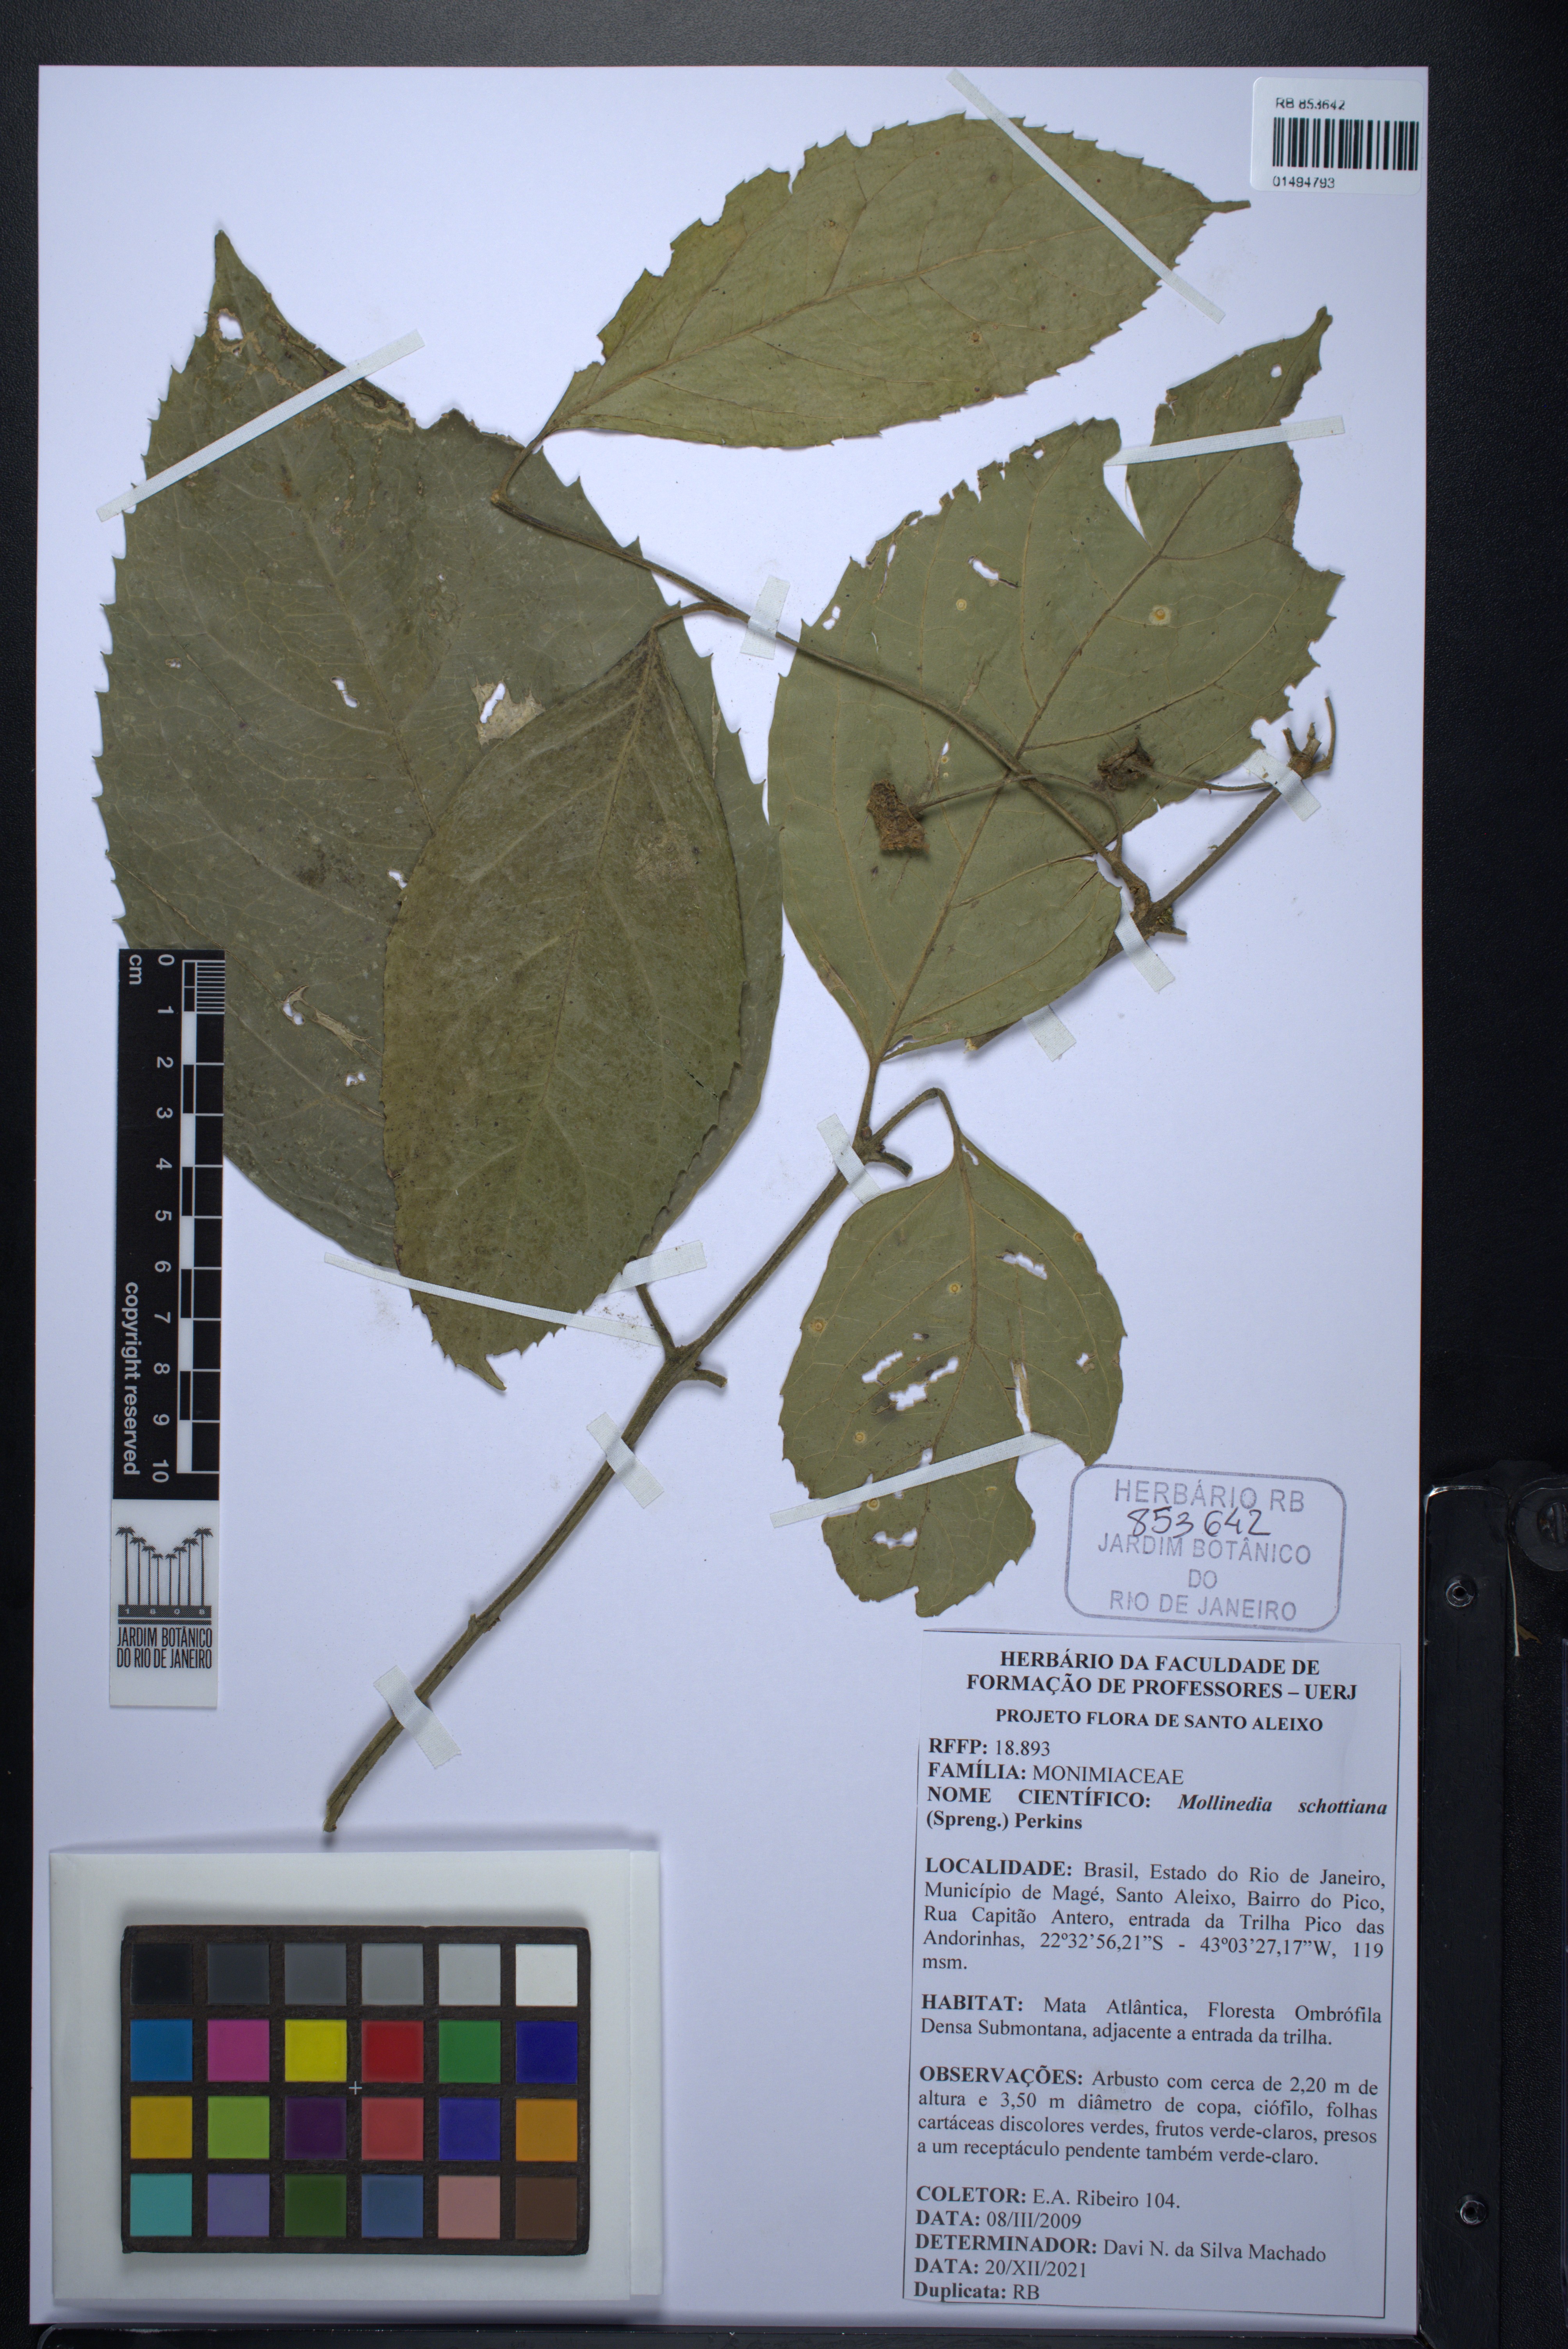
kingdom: Plantae
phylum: Tracheophyta
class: Magnoliopsida
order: Laurales
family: Monimiaceae
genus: Mollinedia
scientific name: Mollinedia umbellata
